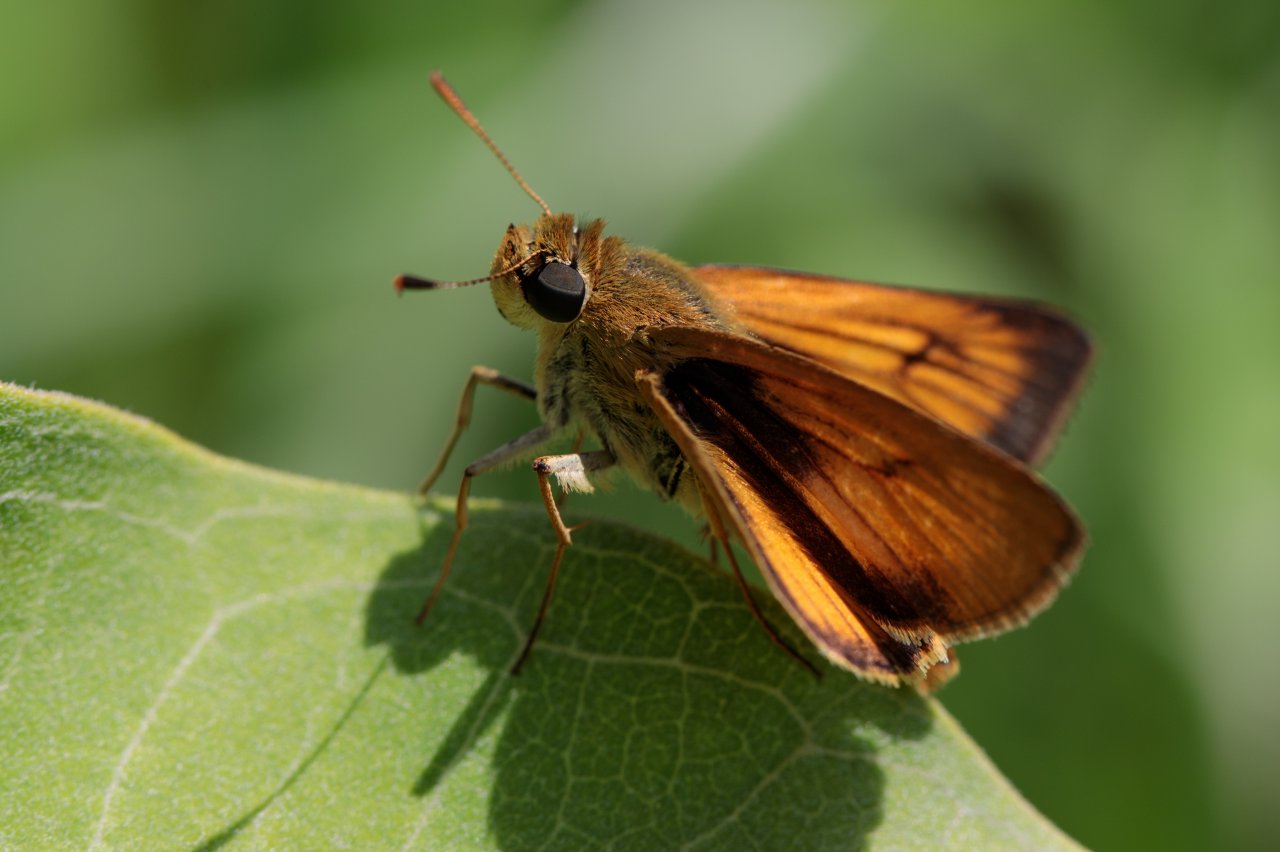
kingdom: Animalia
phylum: Arthropoda
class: Insecta
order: Lepidoptera
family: Hesperiidae
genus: Atrytone
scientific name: Atrytone delaware
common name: Delaware Skipper
